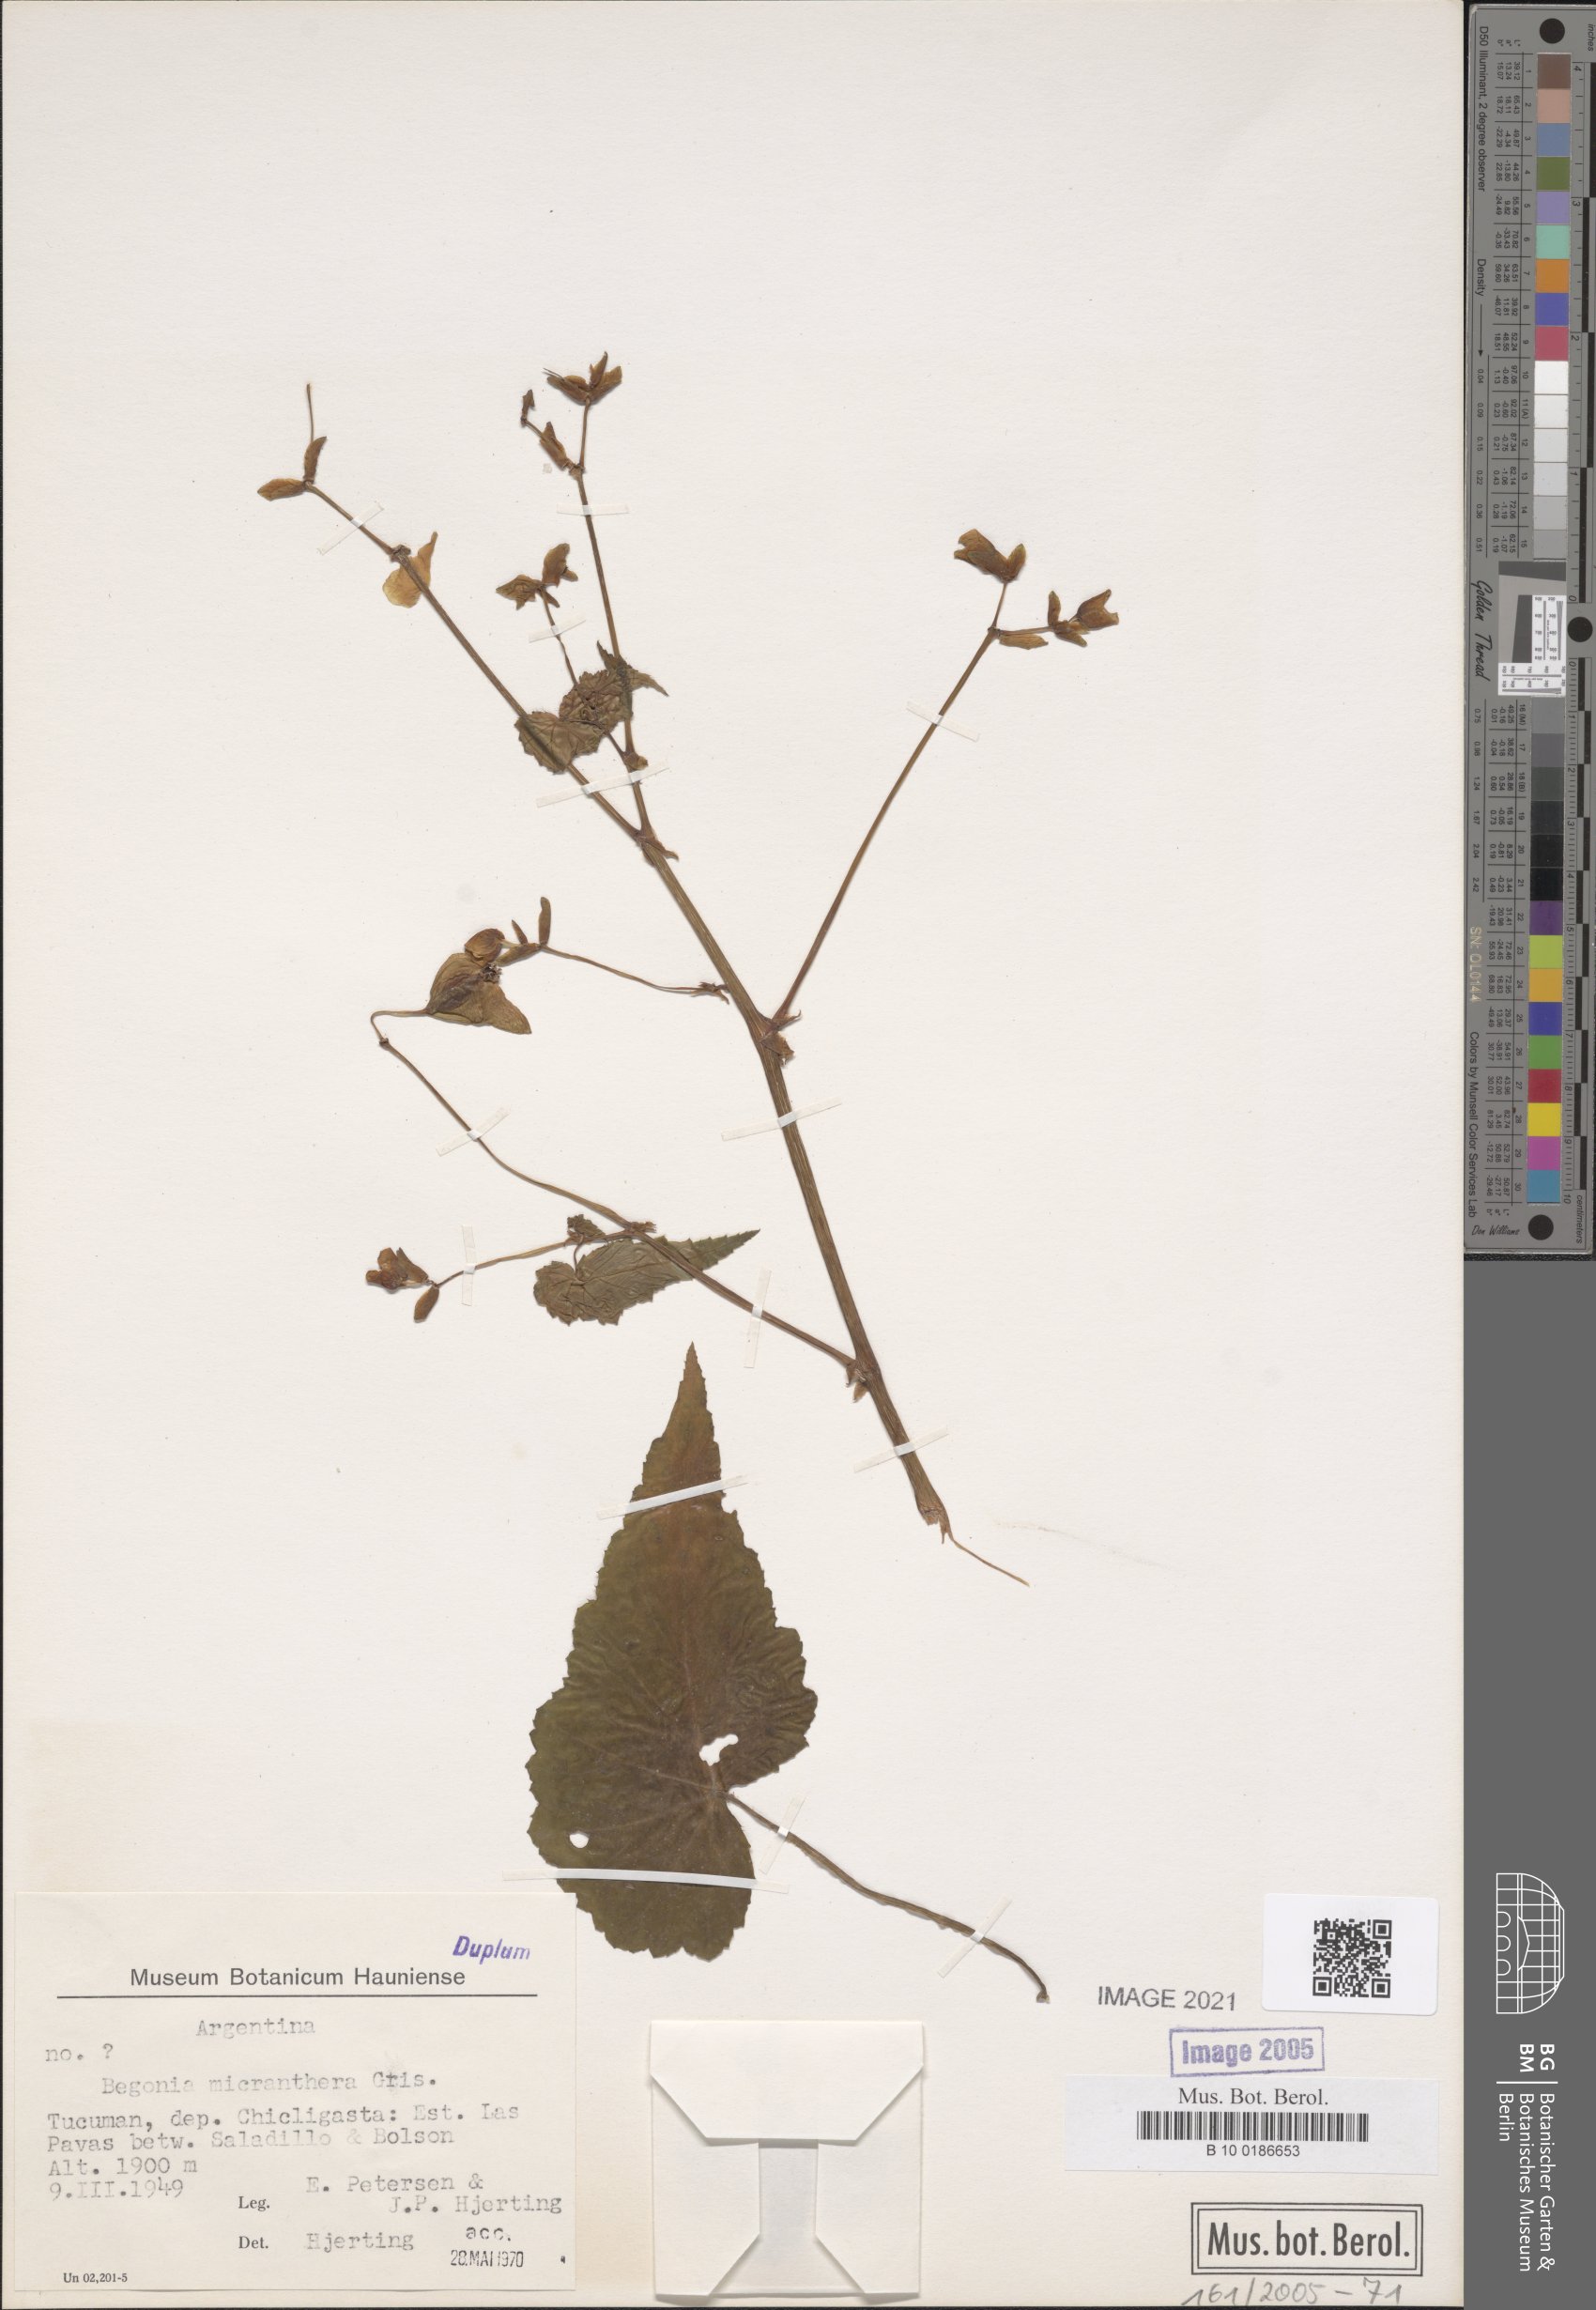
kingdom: Plantae
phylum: Tracheophyta
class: Magnoliopsida
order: Cucurbitales
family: Begoniaceae
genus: Begonia
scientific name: Begonia micranthera
